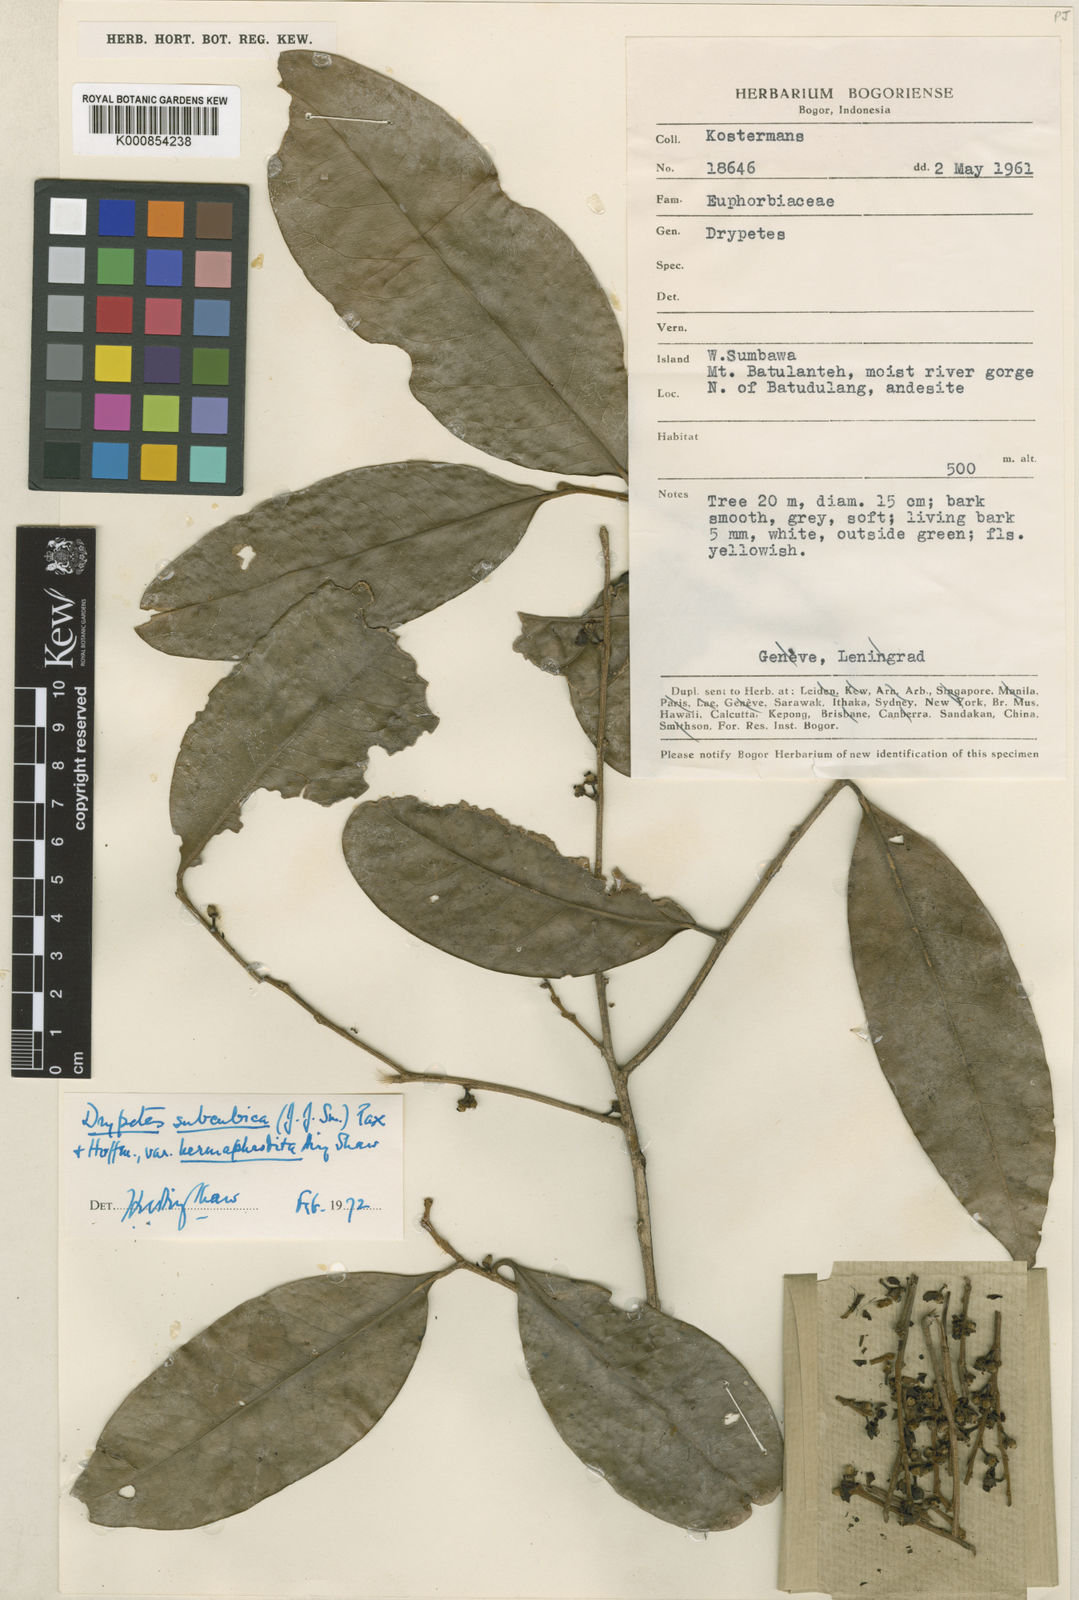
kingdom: Plantae
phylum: Tracheophyta
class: Magnoliopsida
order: Malpighiales
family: Putranjivaceae
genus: Drypetes
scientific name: Drypetes subcubica
